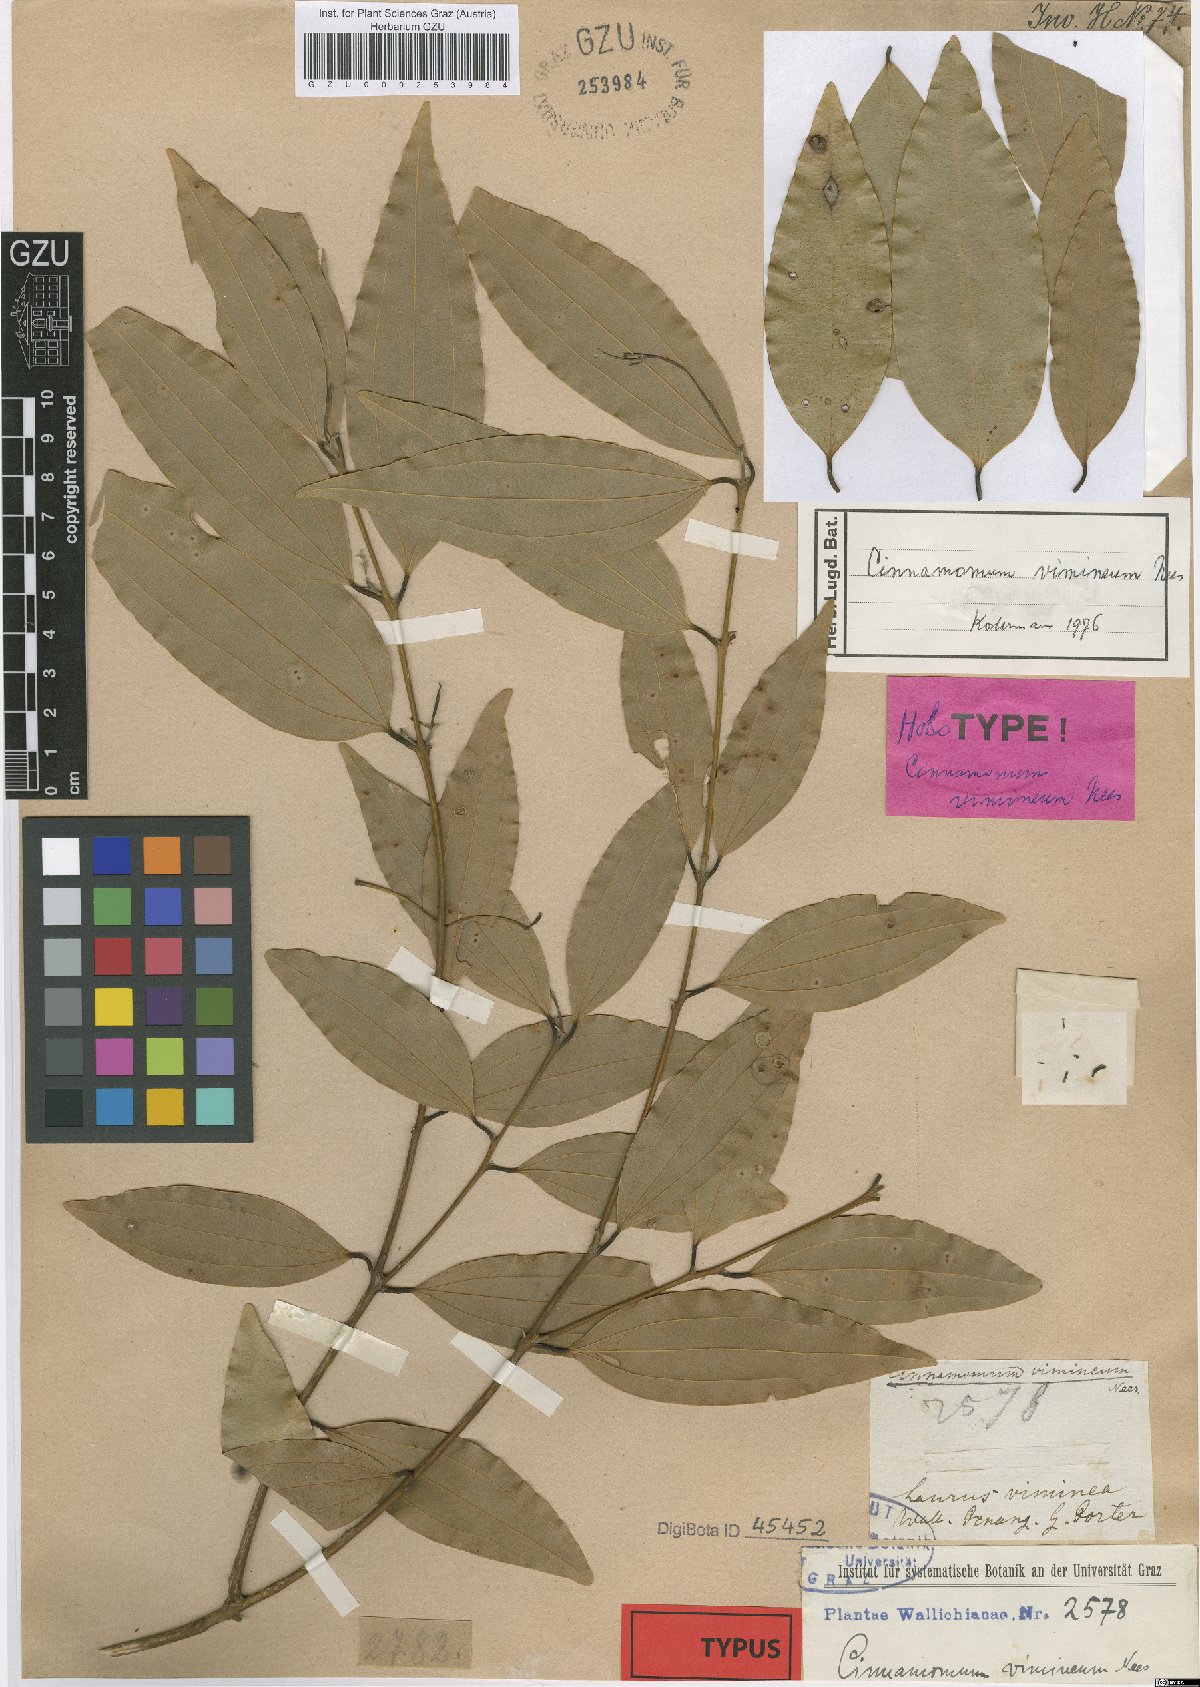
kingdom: Plantae
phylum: Tracheophyta
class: Magnoliopsida
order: Laurales
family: Lauraceae
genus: Cinnamomum
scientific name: Cinnamomum vimineum
